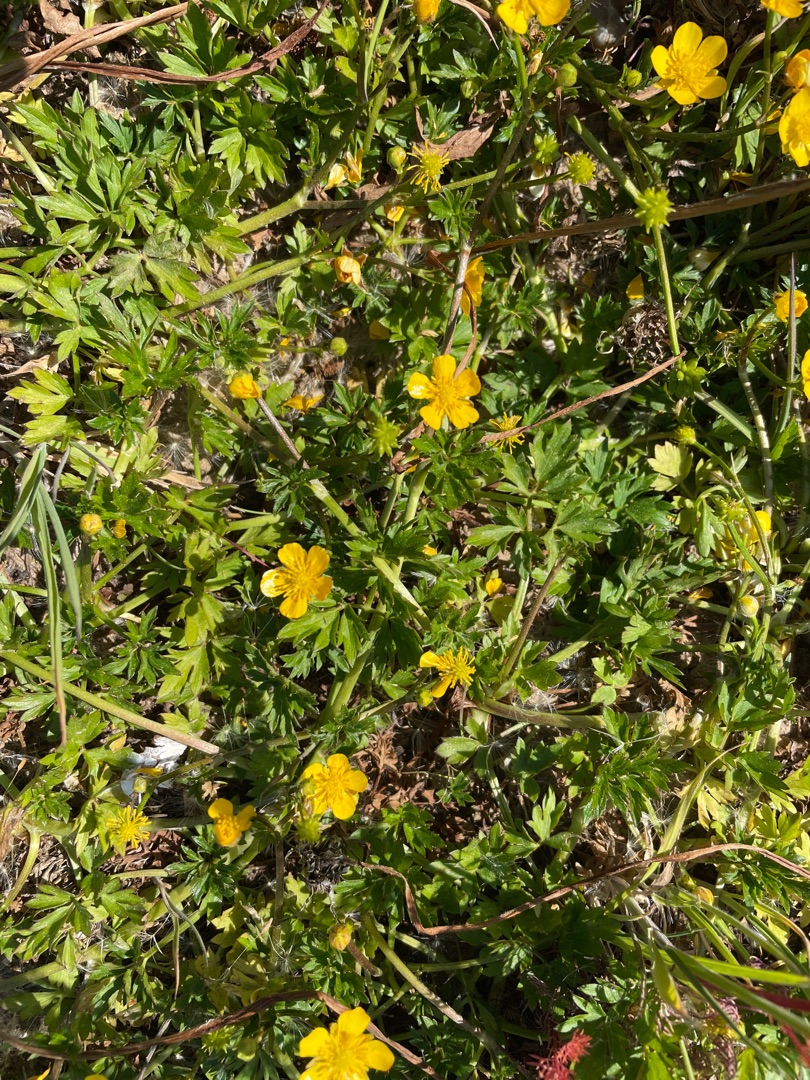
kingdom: Plantae
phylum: Tracheophyta
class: Magnoliopsida
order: Ranunculales
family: Ranunculaceae
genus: Ranunculus
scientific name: Ranunculus repens
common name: Lav ranunkel
